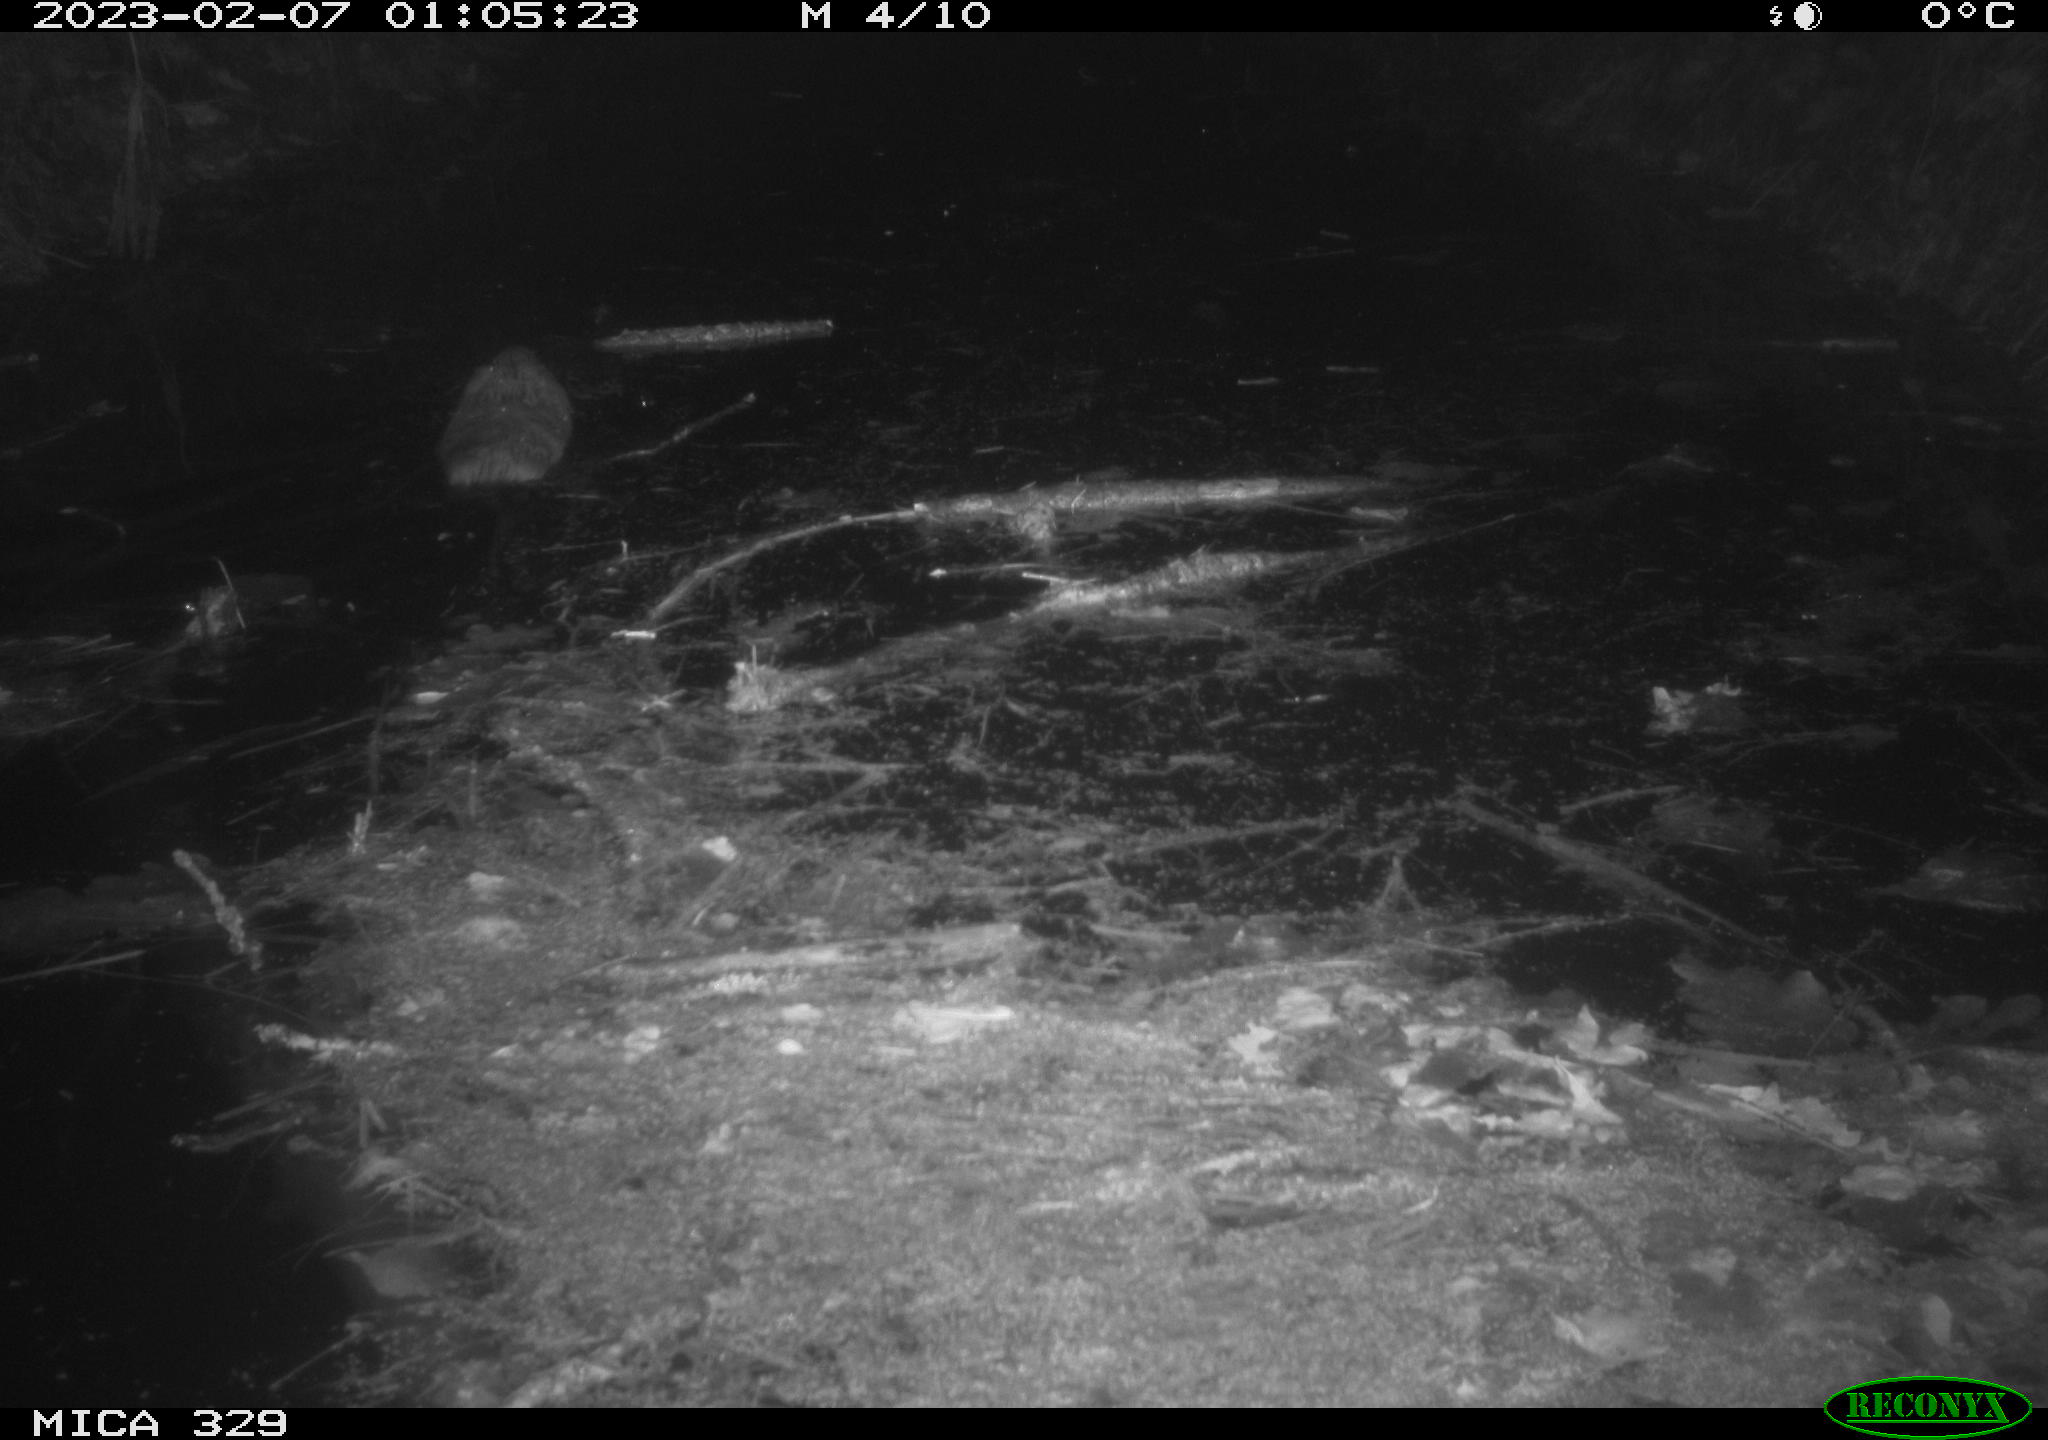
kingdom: Animalia
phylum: Chordata
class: Mammalia
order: Rodentia
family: Cricetidae
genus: Ondatra
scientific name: Ondatra zibethicus
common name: Muskrat
